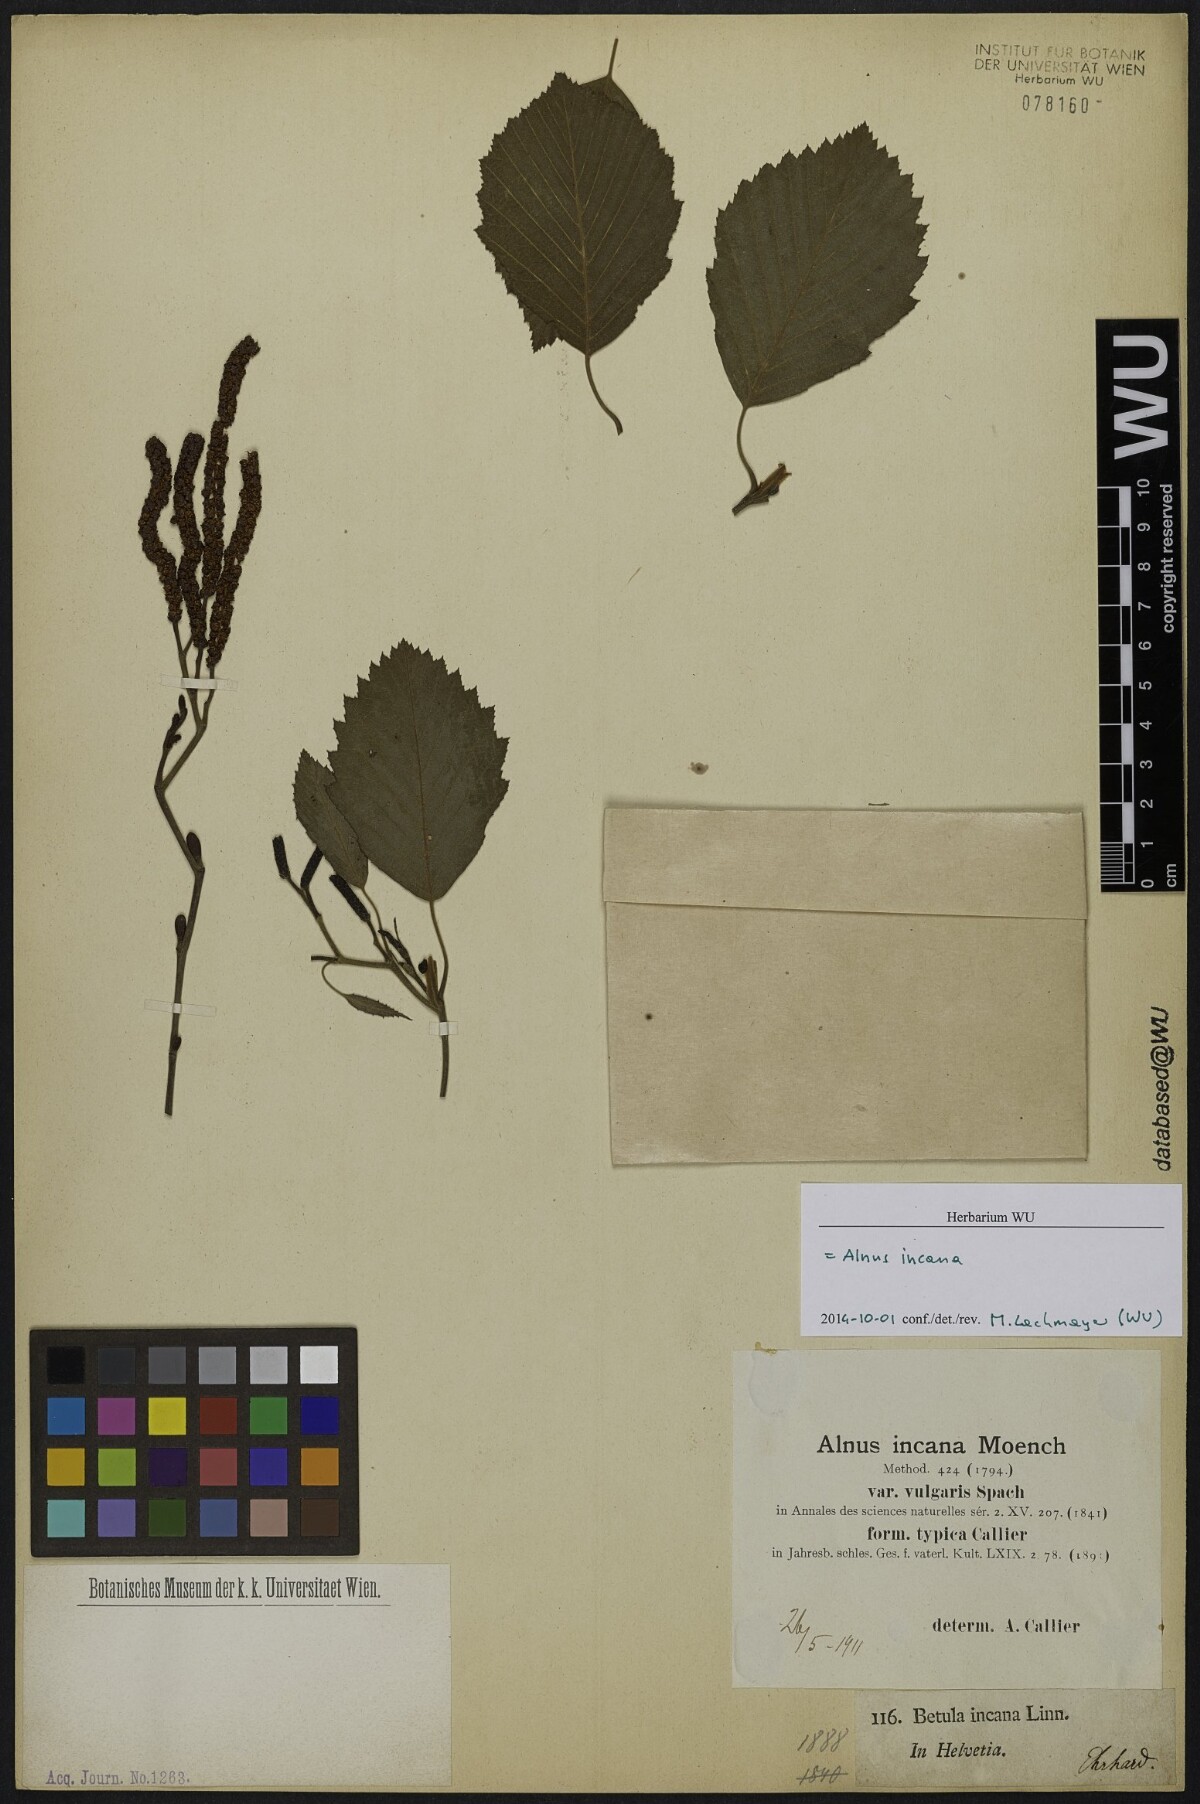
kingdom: Plantae
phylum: Tracheophyta
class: Magnoliopsida
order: Fagales
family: Betulaceae
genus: Alnus
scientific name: Alnus incana
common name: Grey alder
